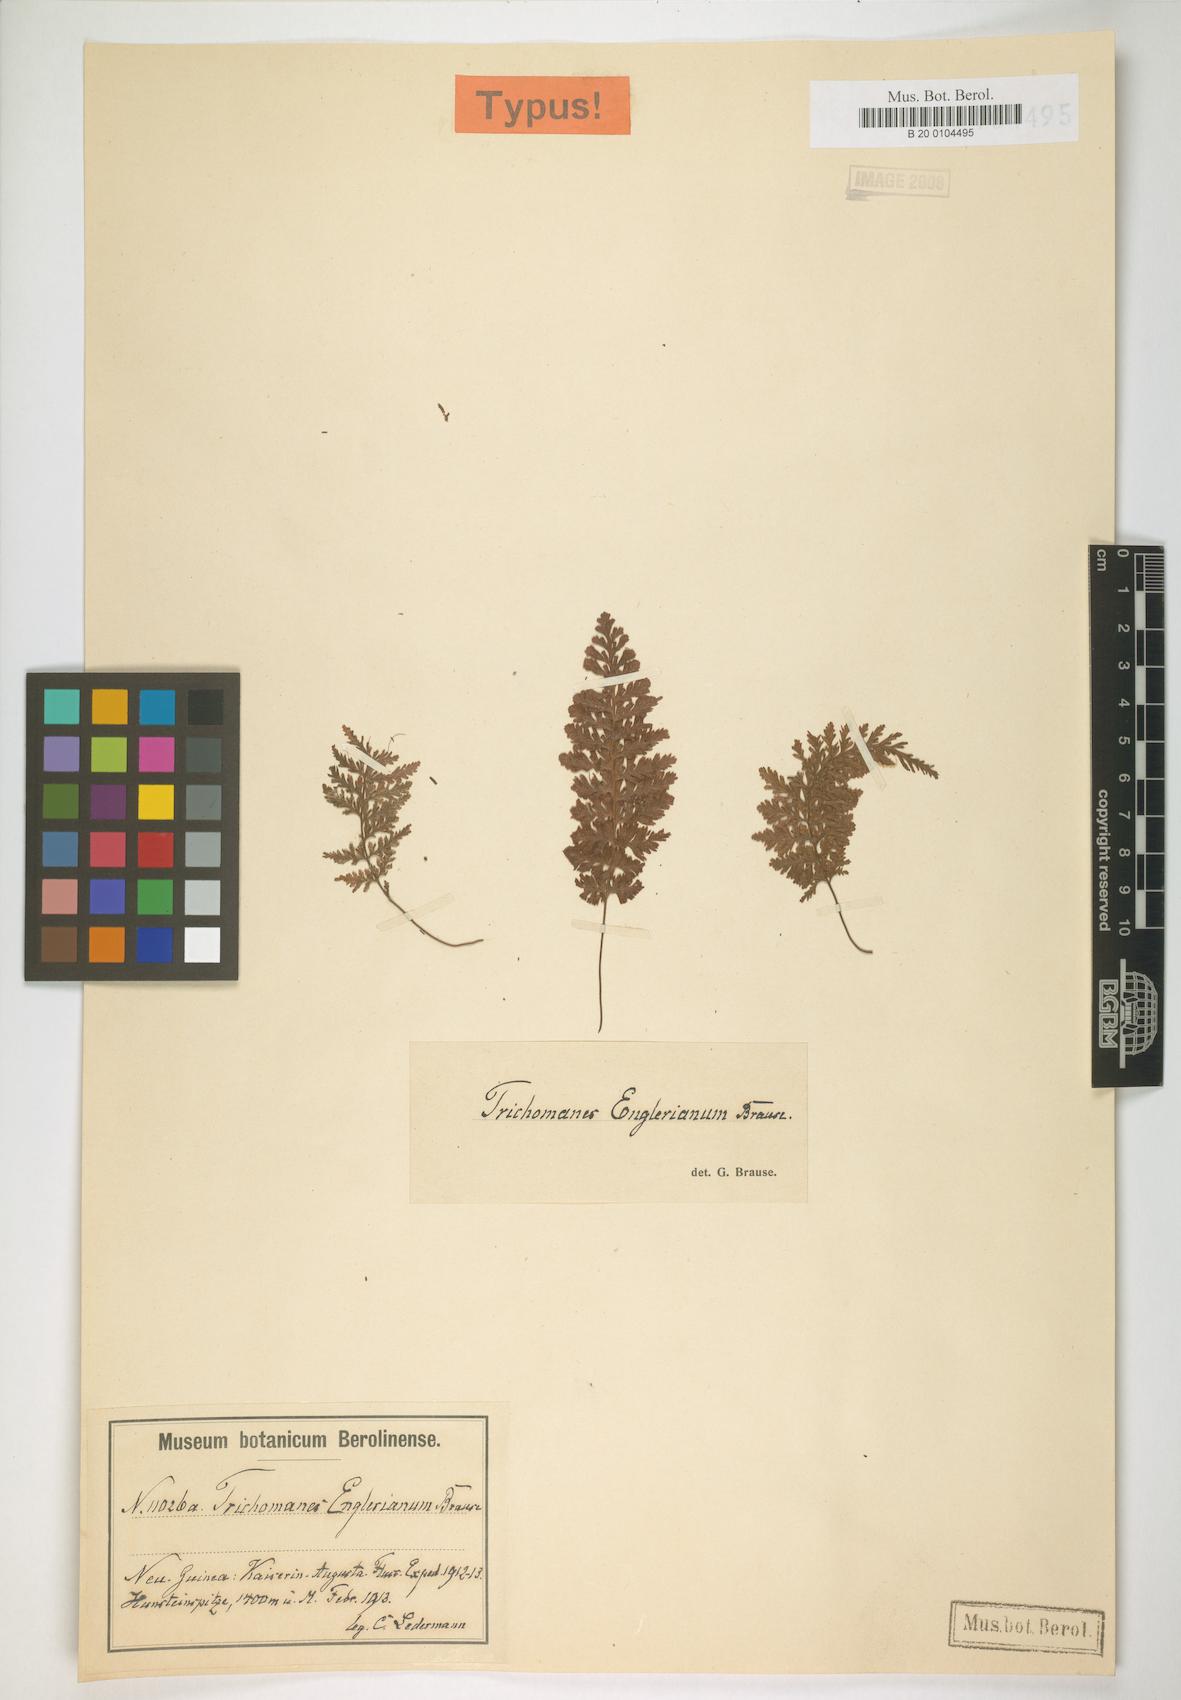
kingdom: Plantae
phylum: Tracheophyta
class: Polypodiopsida
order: Hymenophyllales
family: Hymenophyllaceae
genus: Abrodictyum
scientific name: Abrodictyum obscurum
